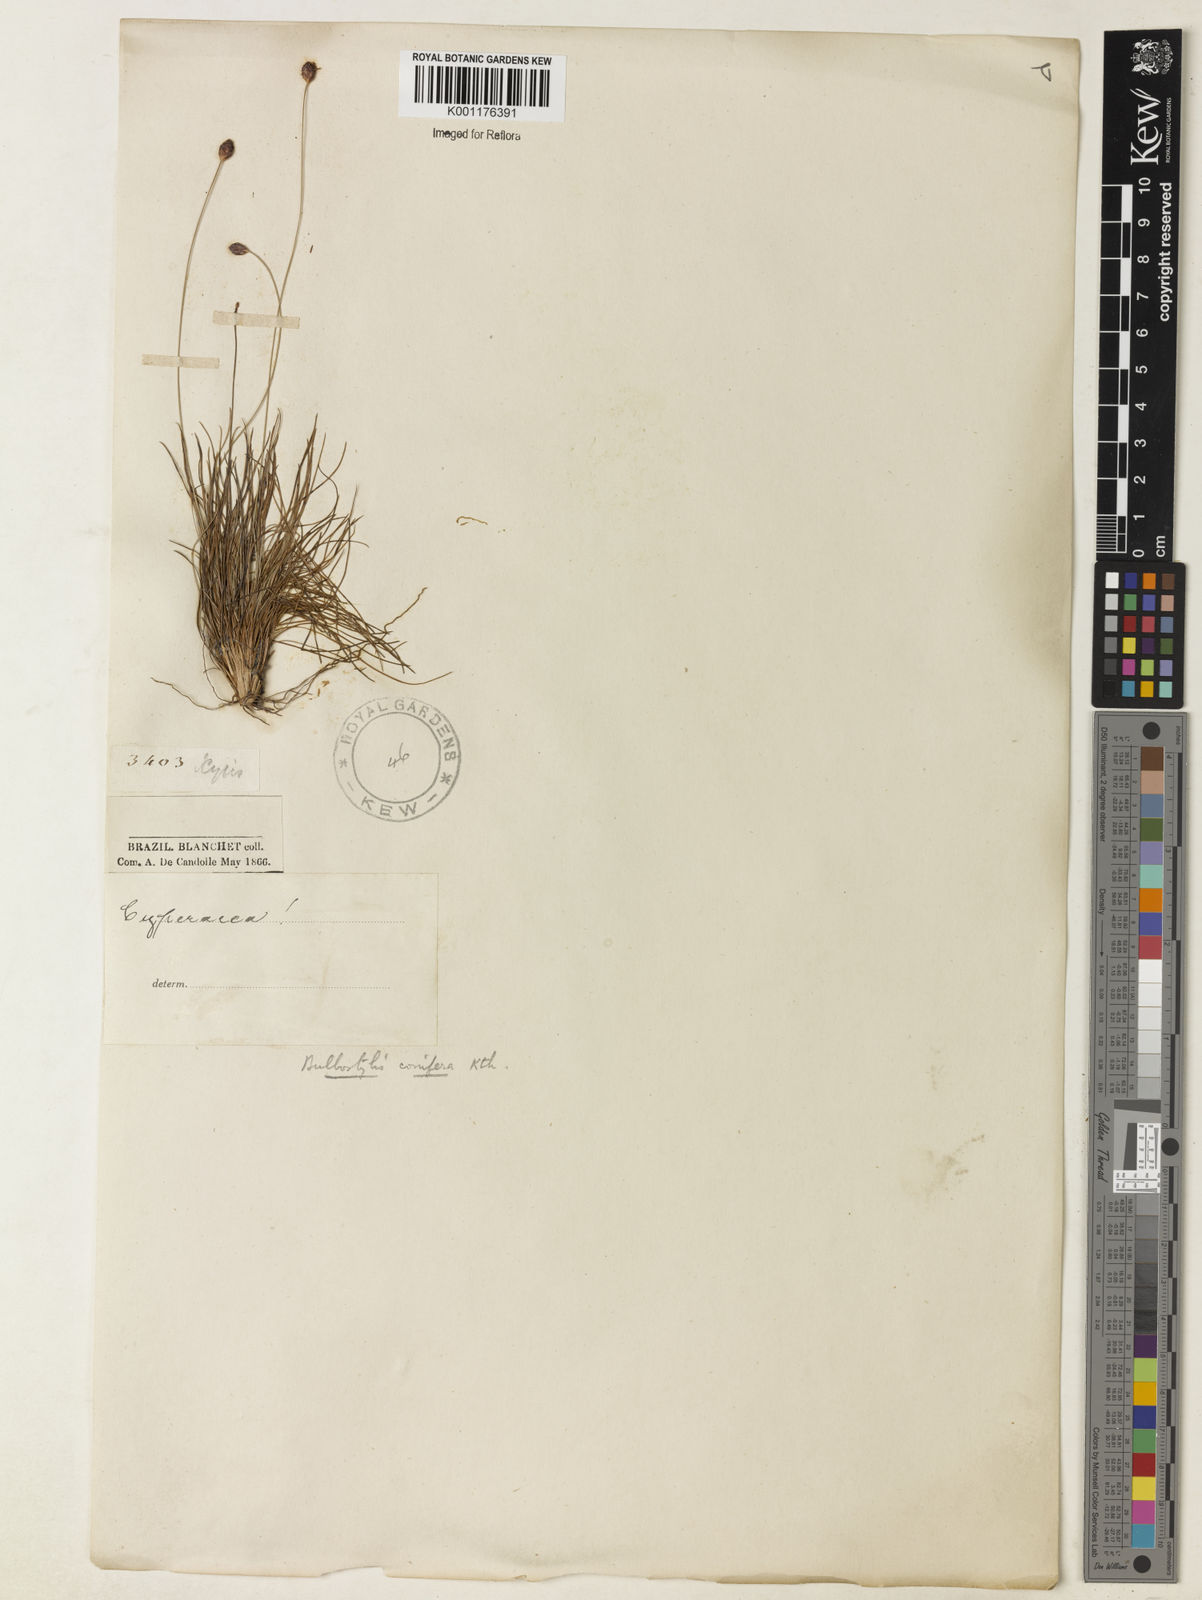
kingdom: Plantae
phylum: Tracheophyta
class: Liliopsida
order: Poales
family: Cyperaceae
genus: Bulbostylis
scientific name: Bulbostylis conifera
